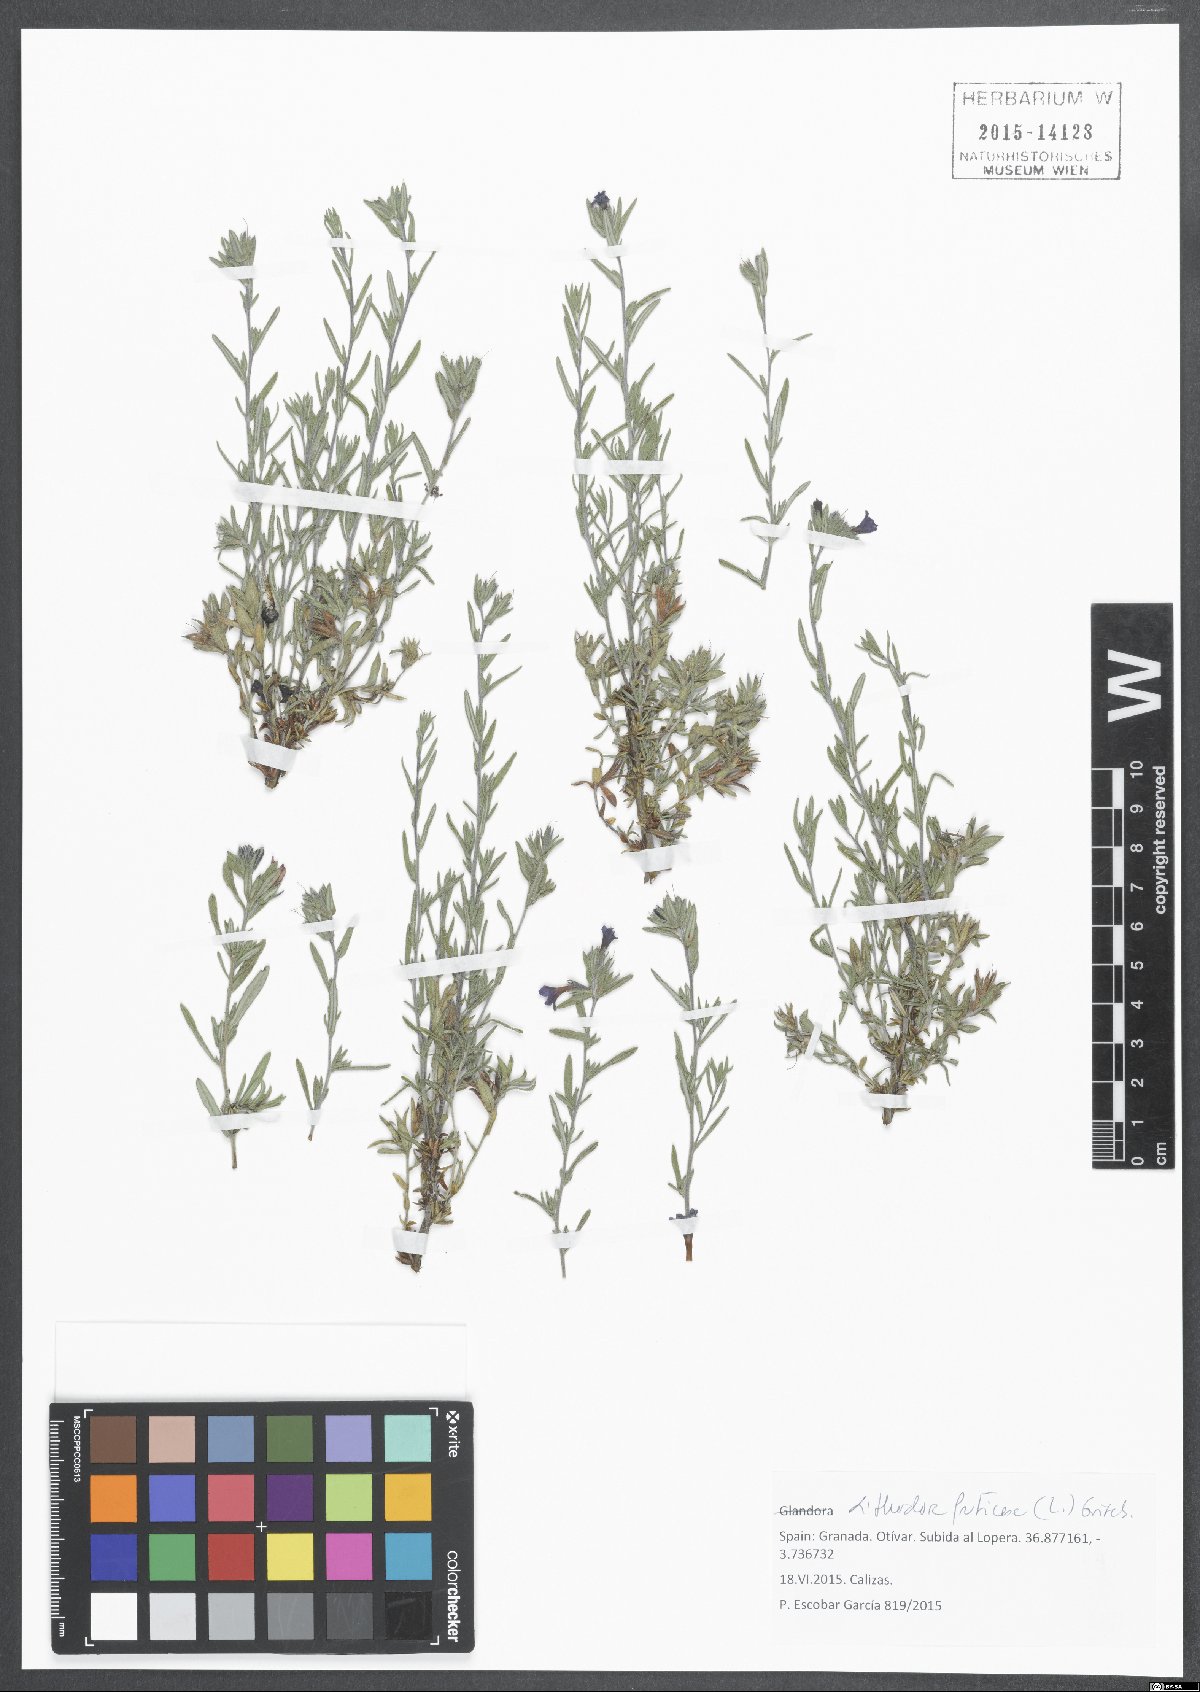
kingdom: Plantae
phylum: Tracheophyta
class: Magnoliopsida
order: Boraginales
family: Boraginaceae
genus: Lithodora
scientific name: Lithodora fruticosa
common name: Shrubby gromwell
